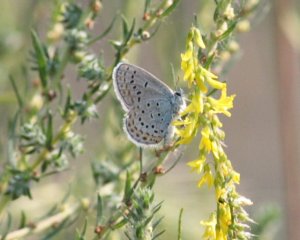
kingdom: Animalia
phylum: Arthropoda
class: Insecta
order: Lepidoptera
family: Lycaenidae
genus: Lycaeides
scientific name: Lycaeides melissa
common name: Melissa Blue
